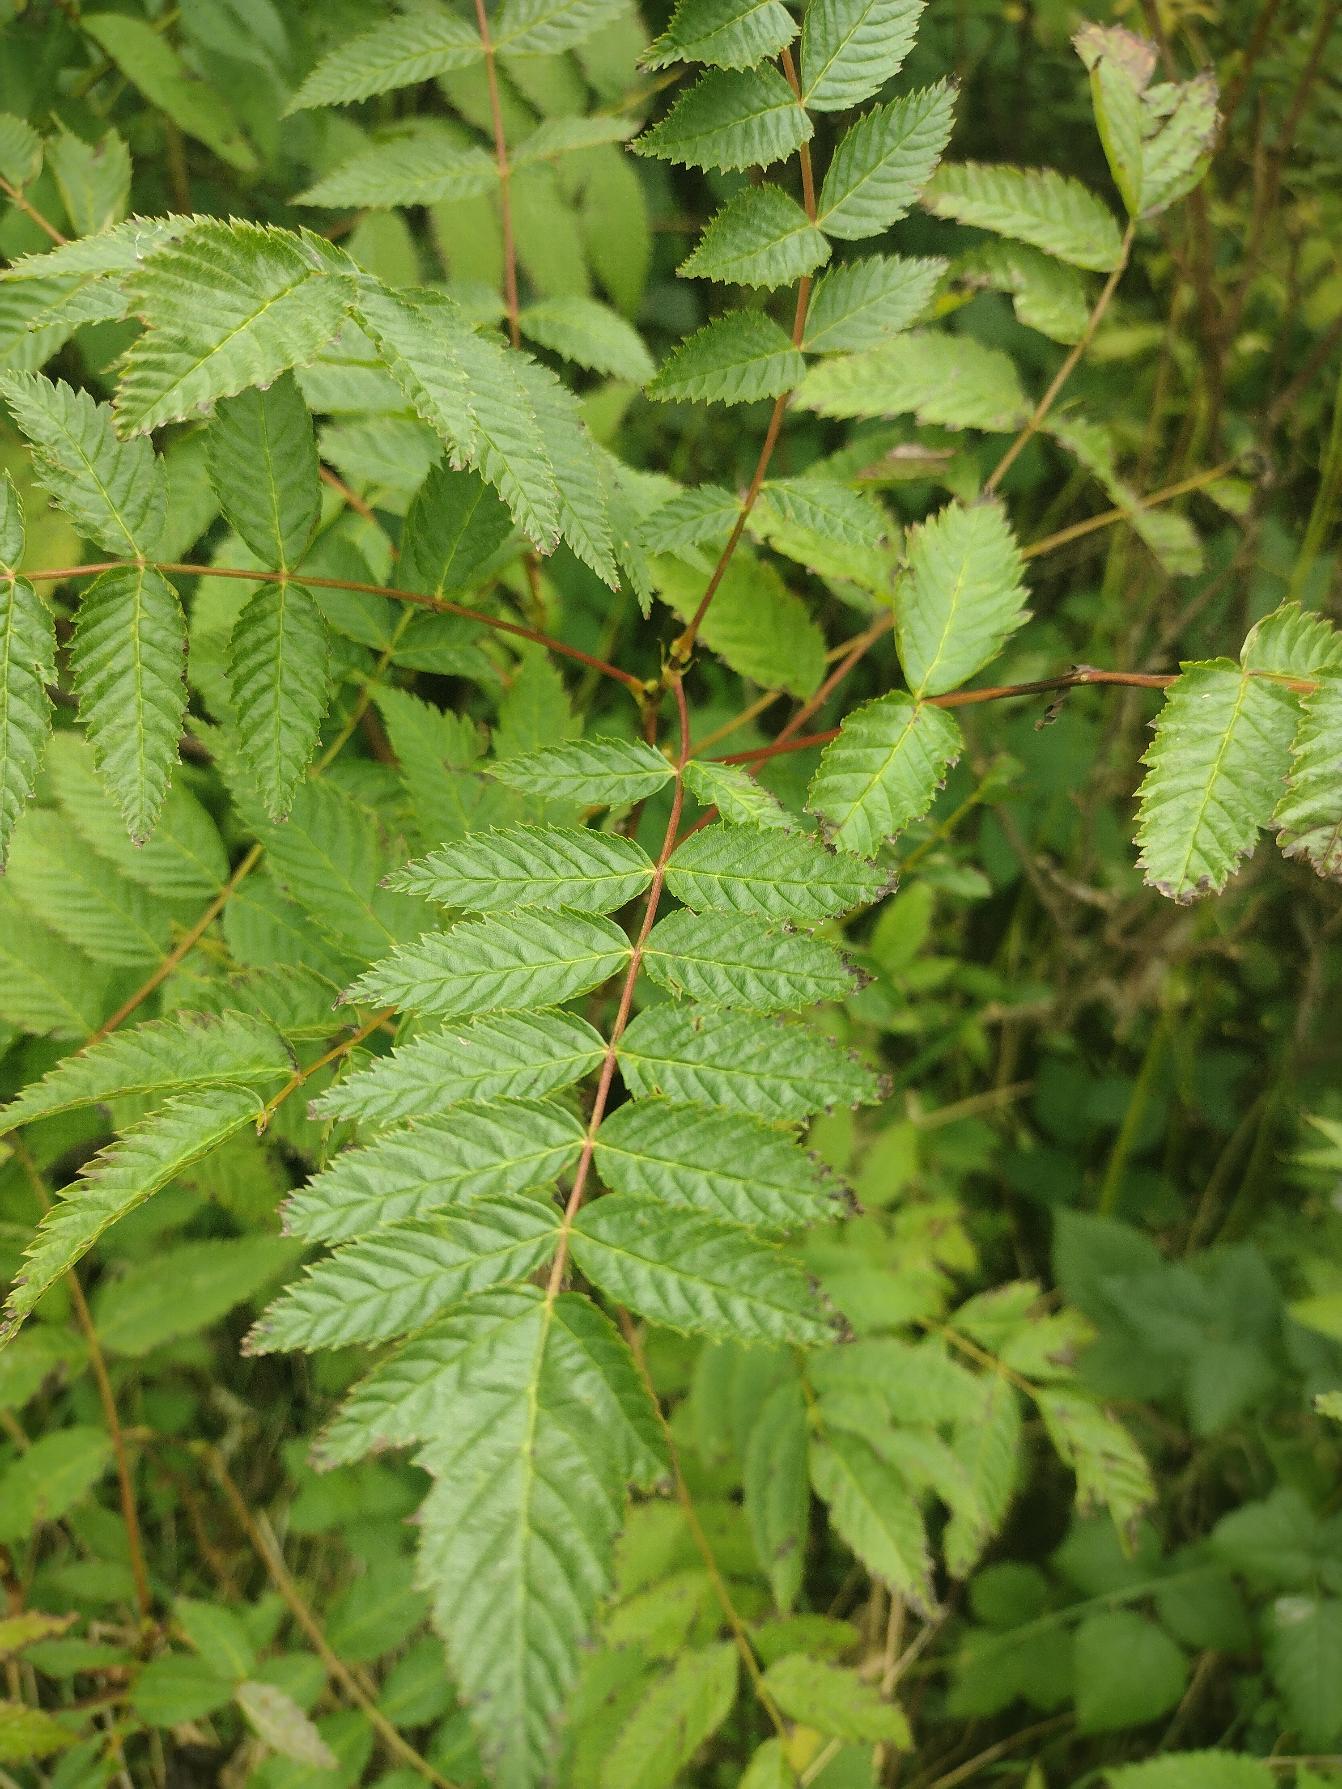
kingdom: Plantae
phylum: Tracheophyta
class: Magnoliopsida
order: Rosales
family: Rosaceae
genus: Sorbaria
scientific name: Sorbaria sorbifolia
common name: Tusindtop
